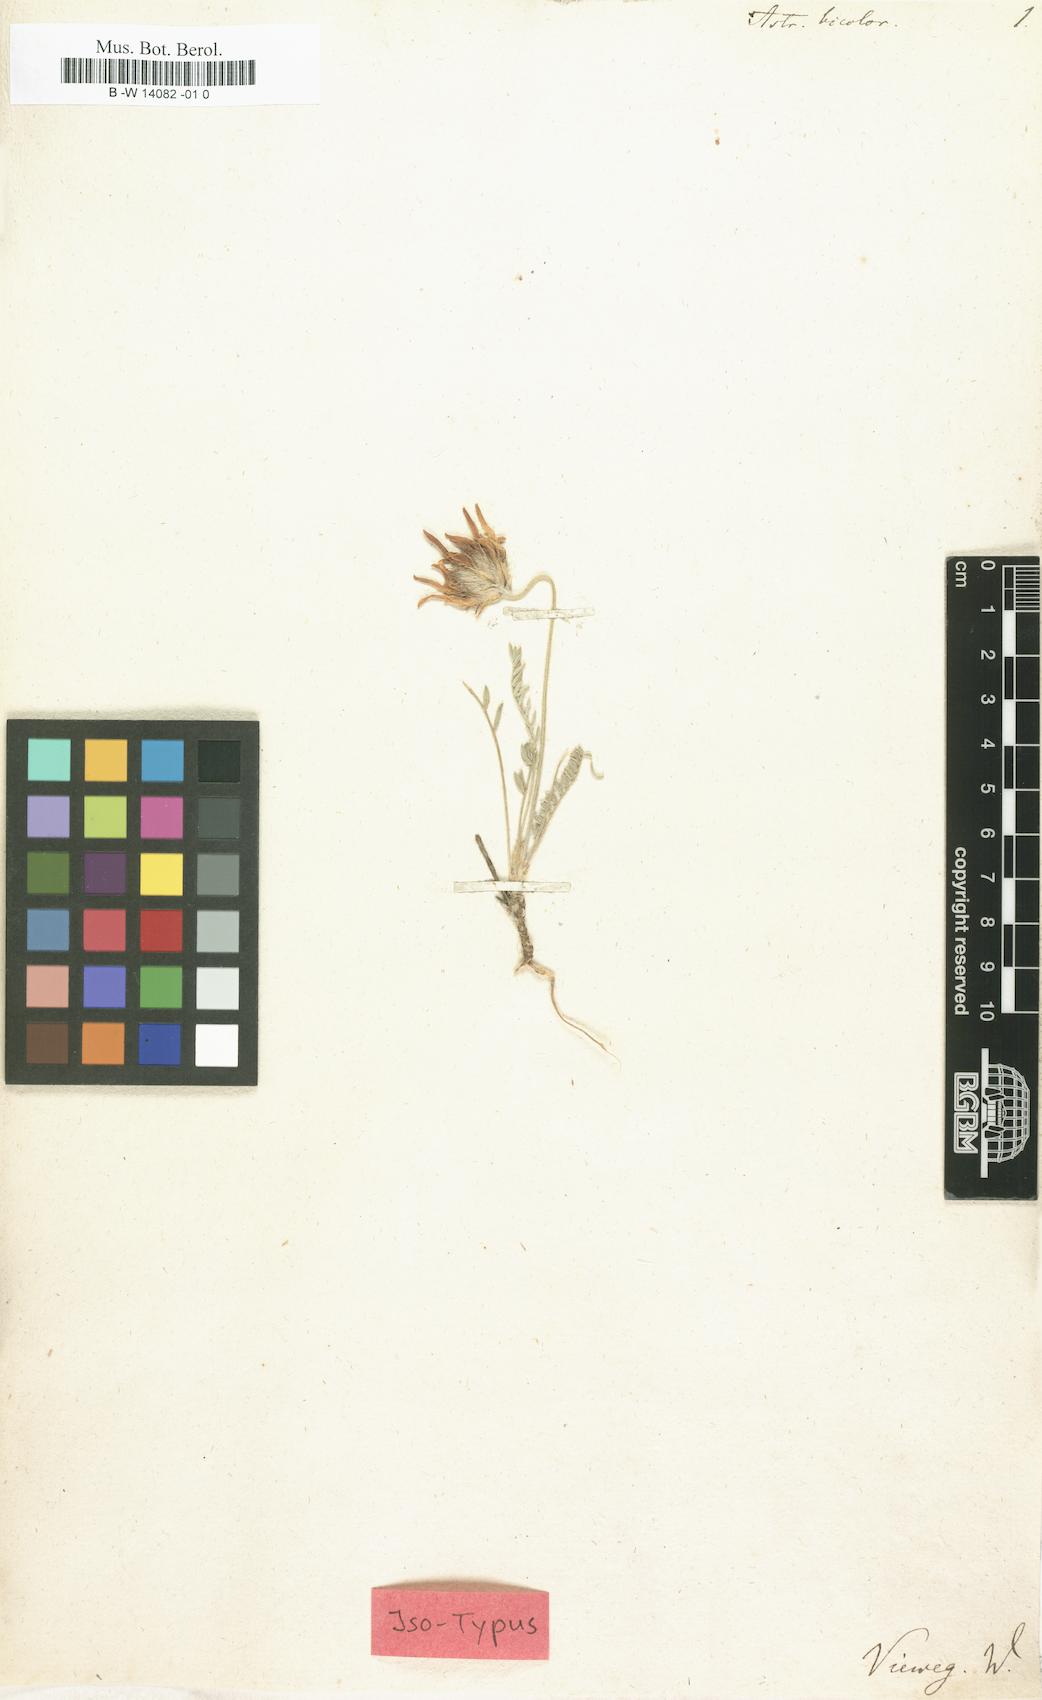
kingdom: Plantae
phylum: Tracheophyta
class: Magnoliopsida
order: Fabales
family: Fabaceae
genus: Astragalus
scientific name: Astragalus bicolor
